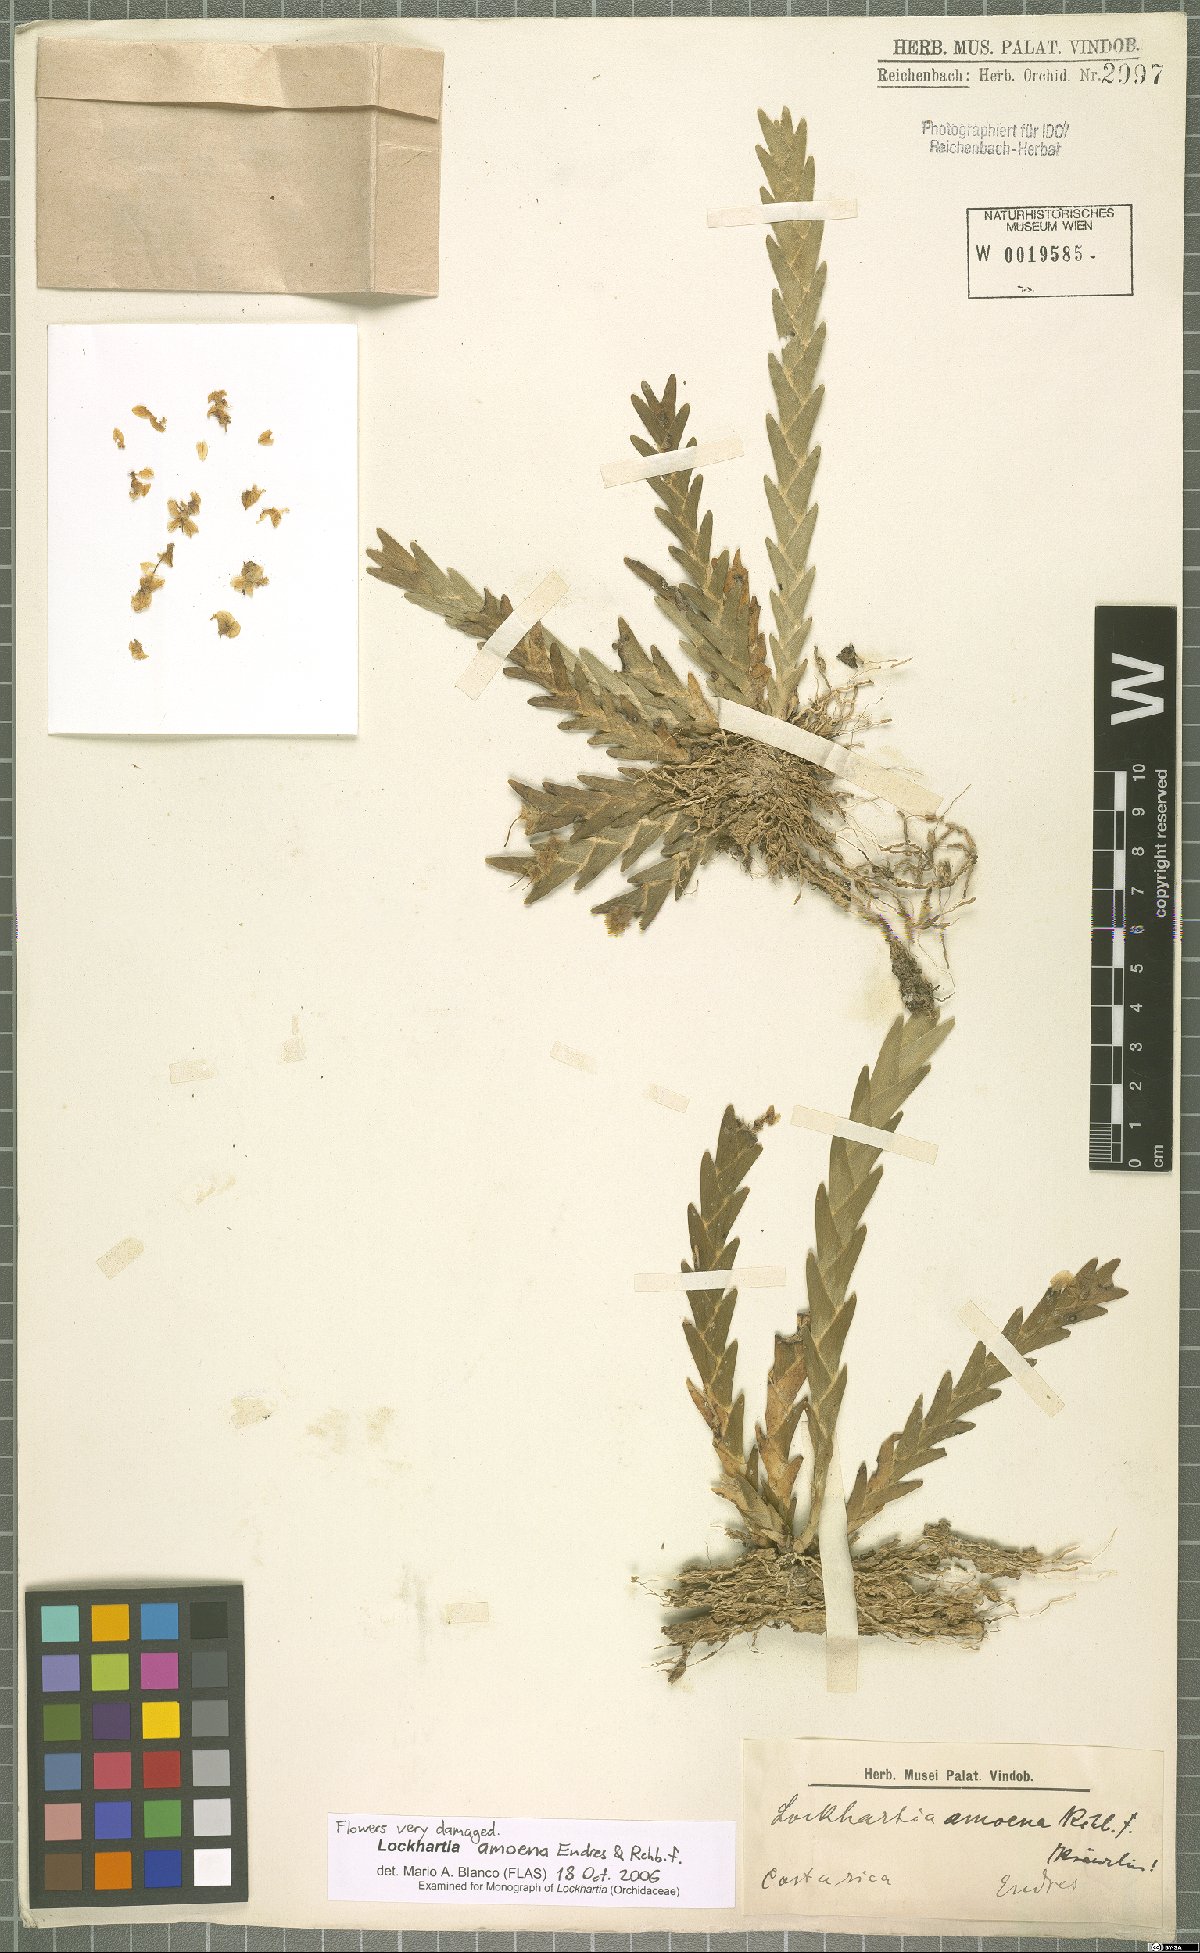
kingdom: Plantae
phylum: Tracheophyta
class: Liliopsida
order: Asparagales
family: Orchidaceae
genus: Lockhartia
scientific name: Lockhartia amoena
